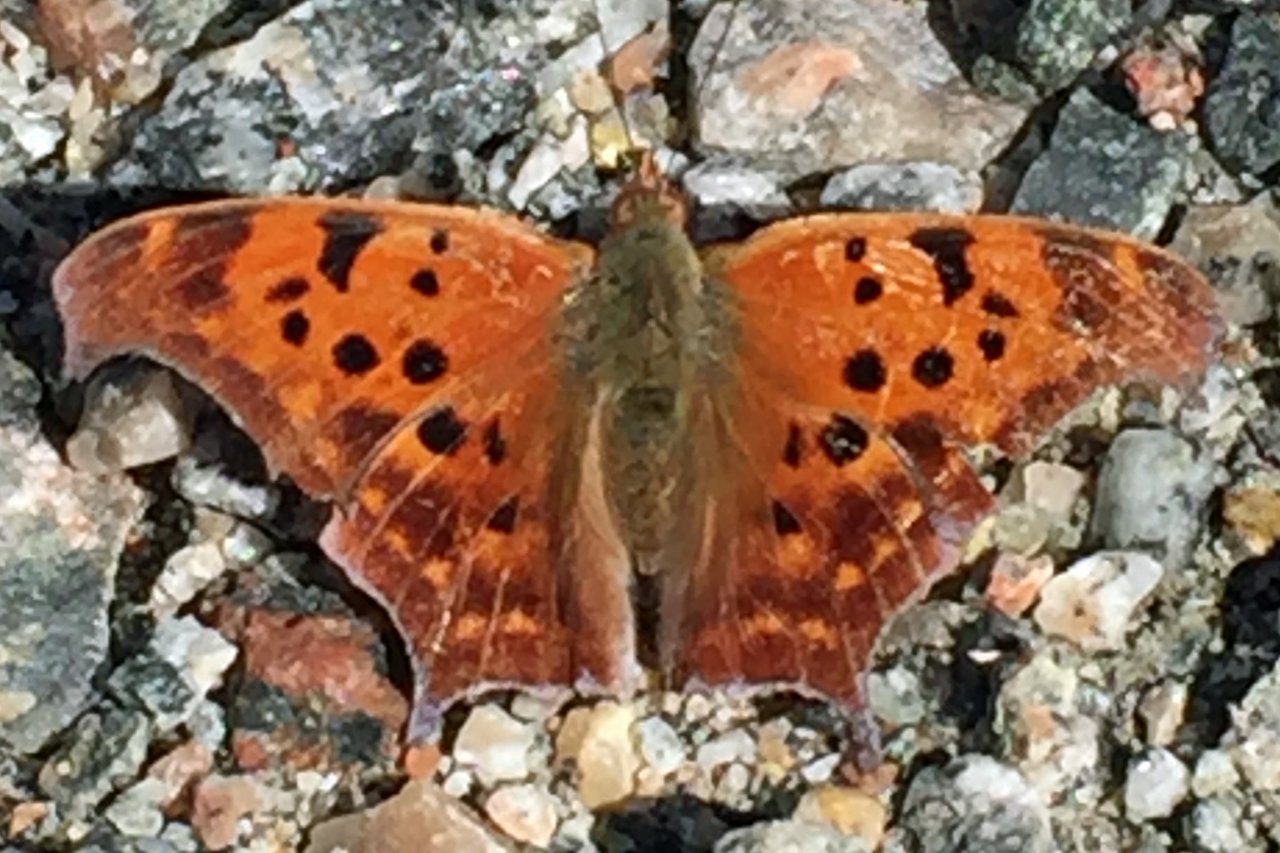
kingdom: Animalia
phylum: Arthropoda
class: Insecta
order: Lepidoptera
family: Nymphalidae
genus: Polygonia
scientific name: Polygonia interrogationis
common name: Question Mark
